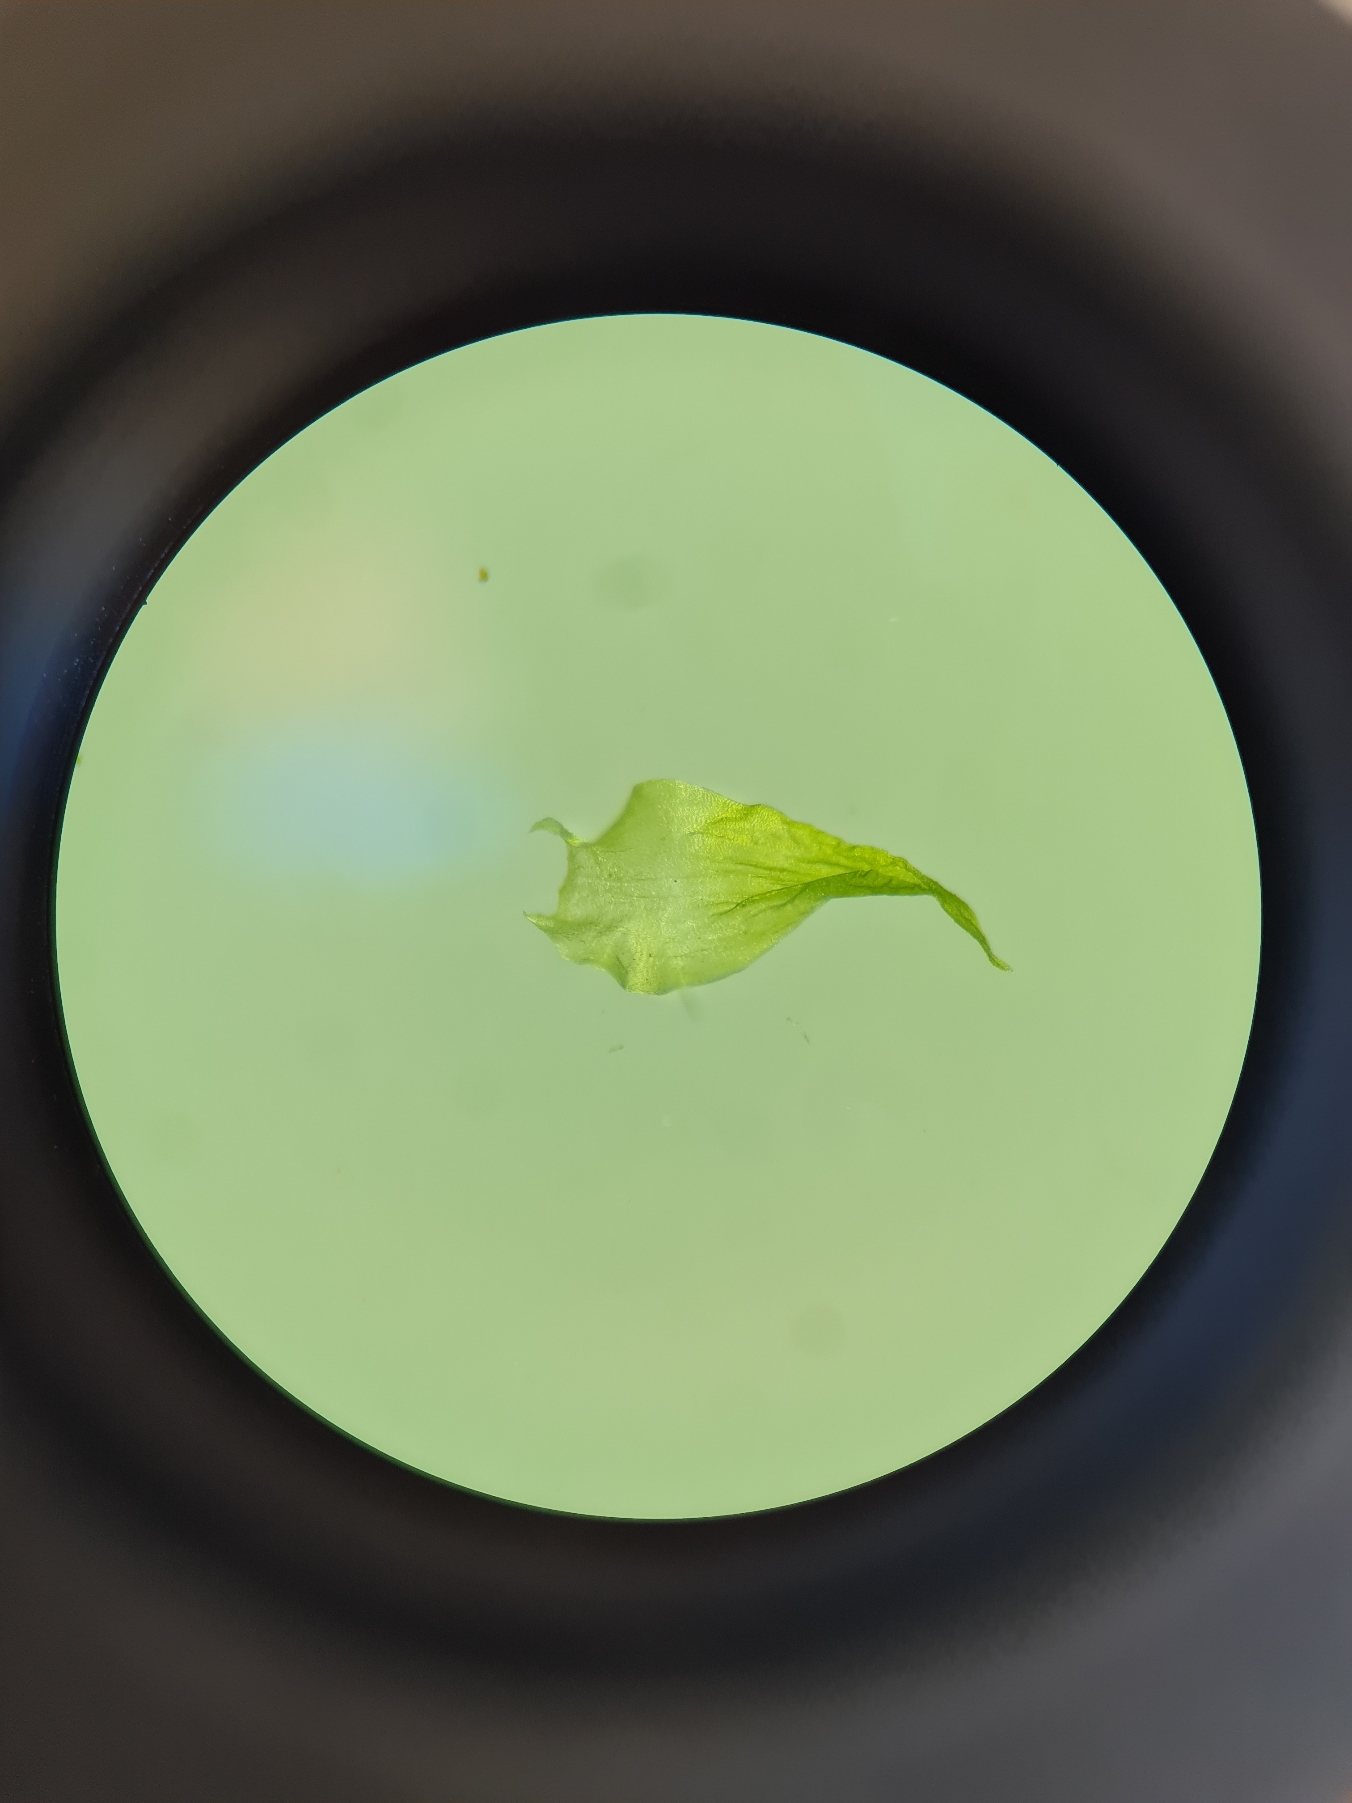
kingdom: Plantae
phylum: Bryophyta
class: Bryopsida
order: Hypnales
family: Hylocomiaceae
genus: Hylocomiadelphus
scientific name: Hylocomiadelphus triquetrus
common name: Stor kransemos
